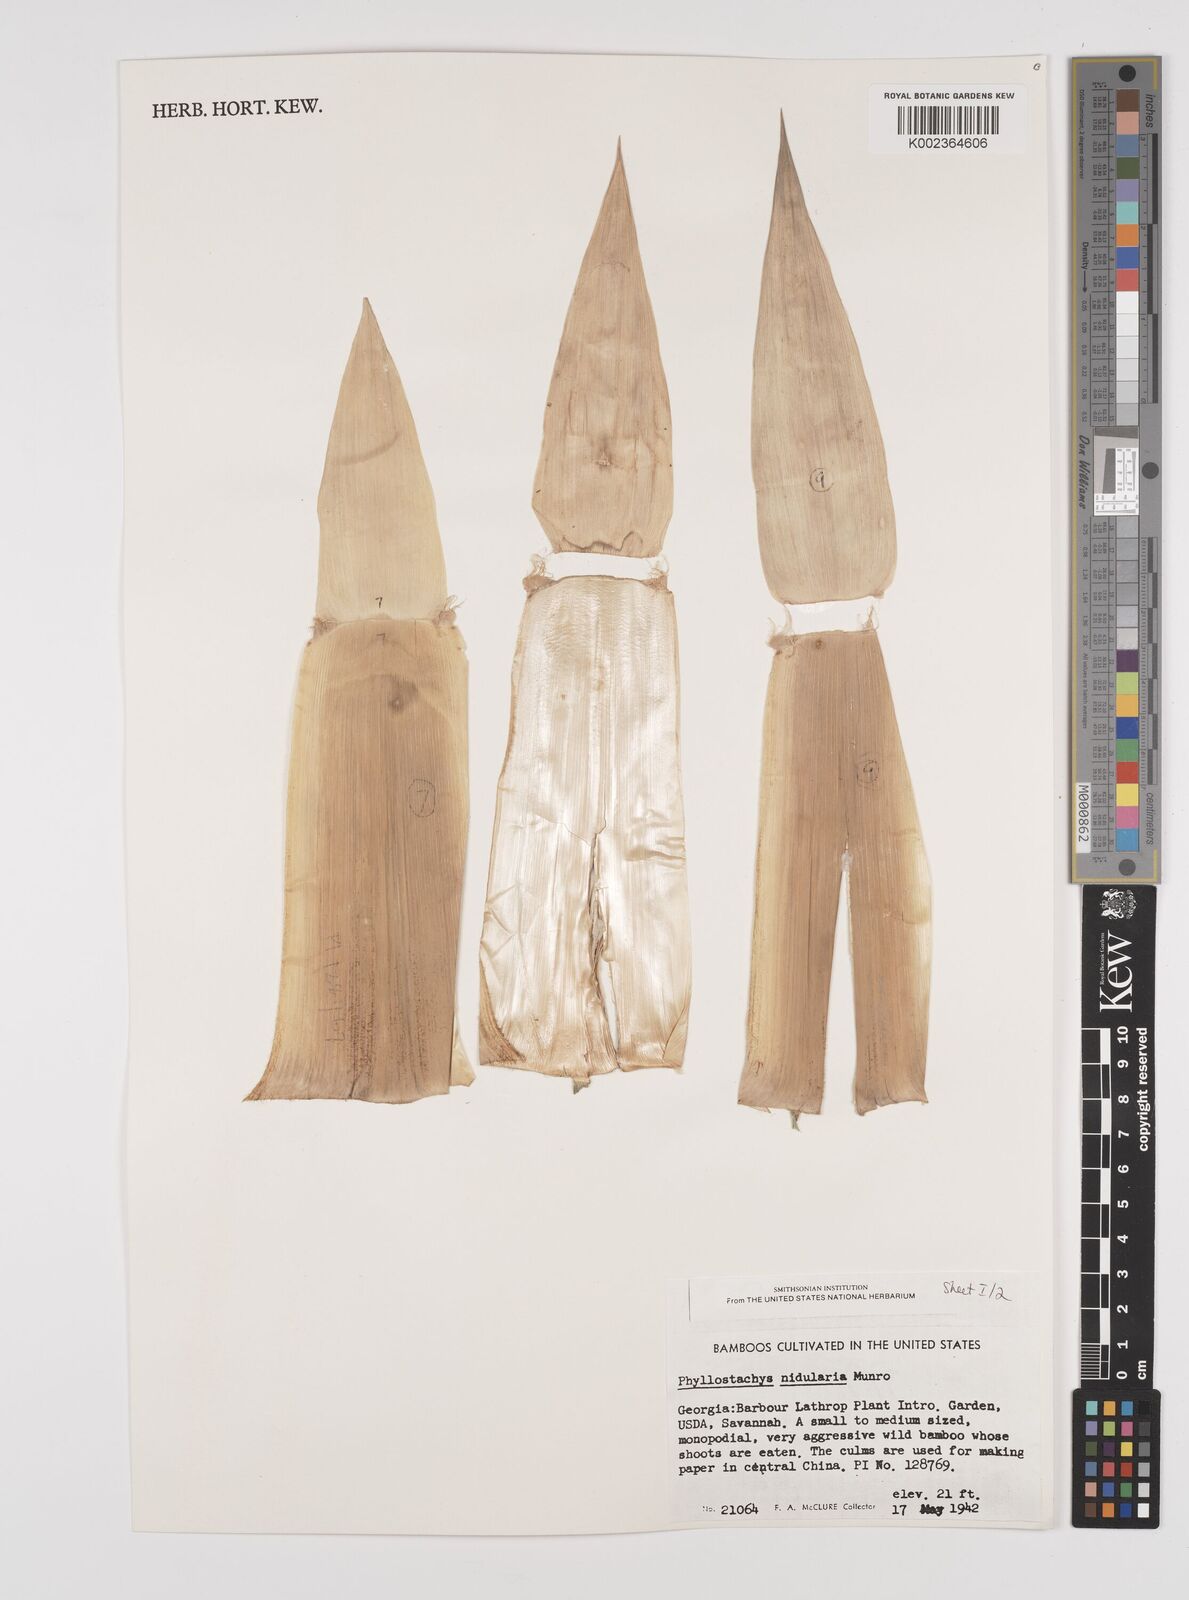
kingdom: Plantae
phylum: Tracheophyta
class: Liliopsida
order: Poales
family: Poaceae
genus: Phyllostachys
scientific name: Phyllostachys nidularia
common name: Broom bamboo
